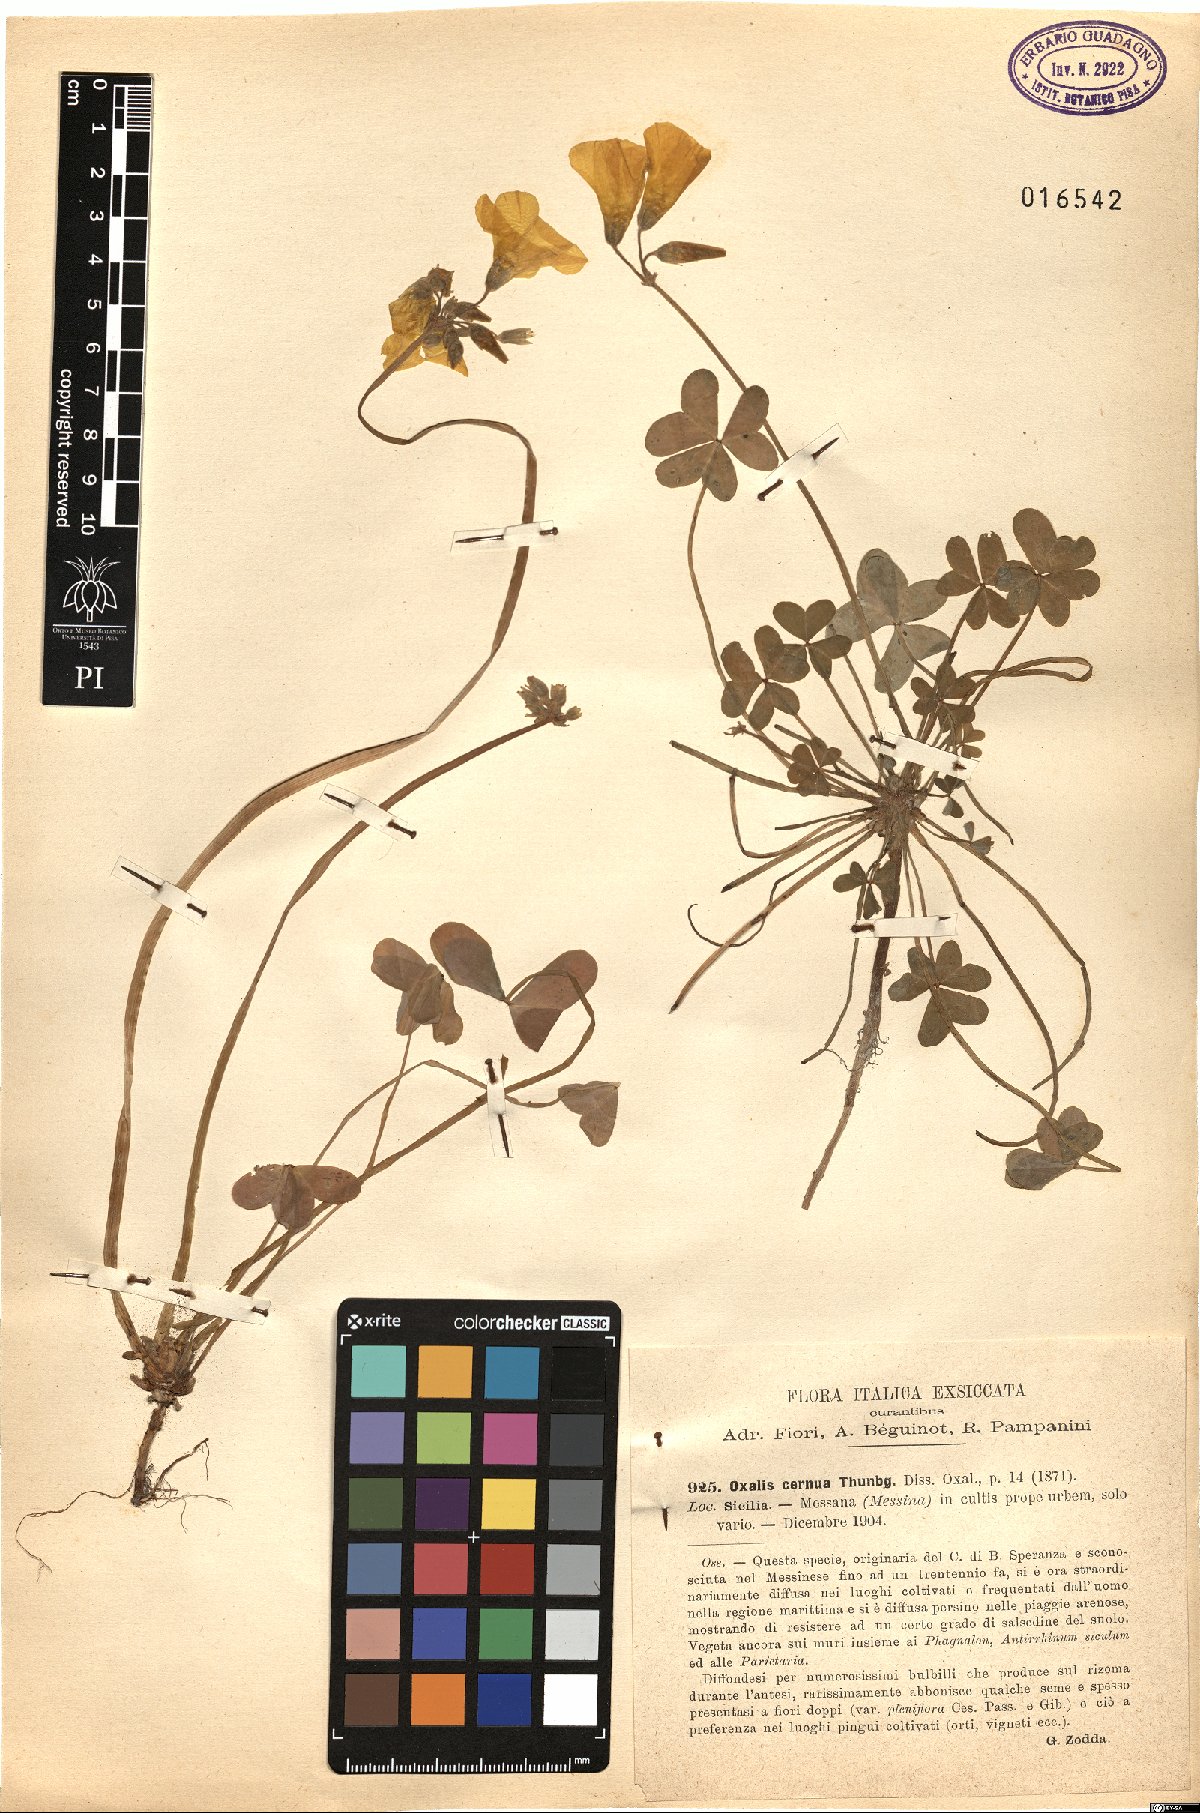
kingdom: Plantae
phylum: Tracheophyta
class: Magnoliopsida
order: Oxalidales
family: Oxalidaceae
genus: Oxalis
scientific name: Oxalis pes-caprae
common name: Bermuda-buttercup
